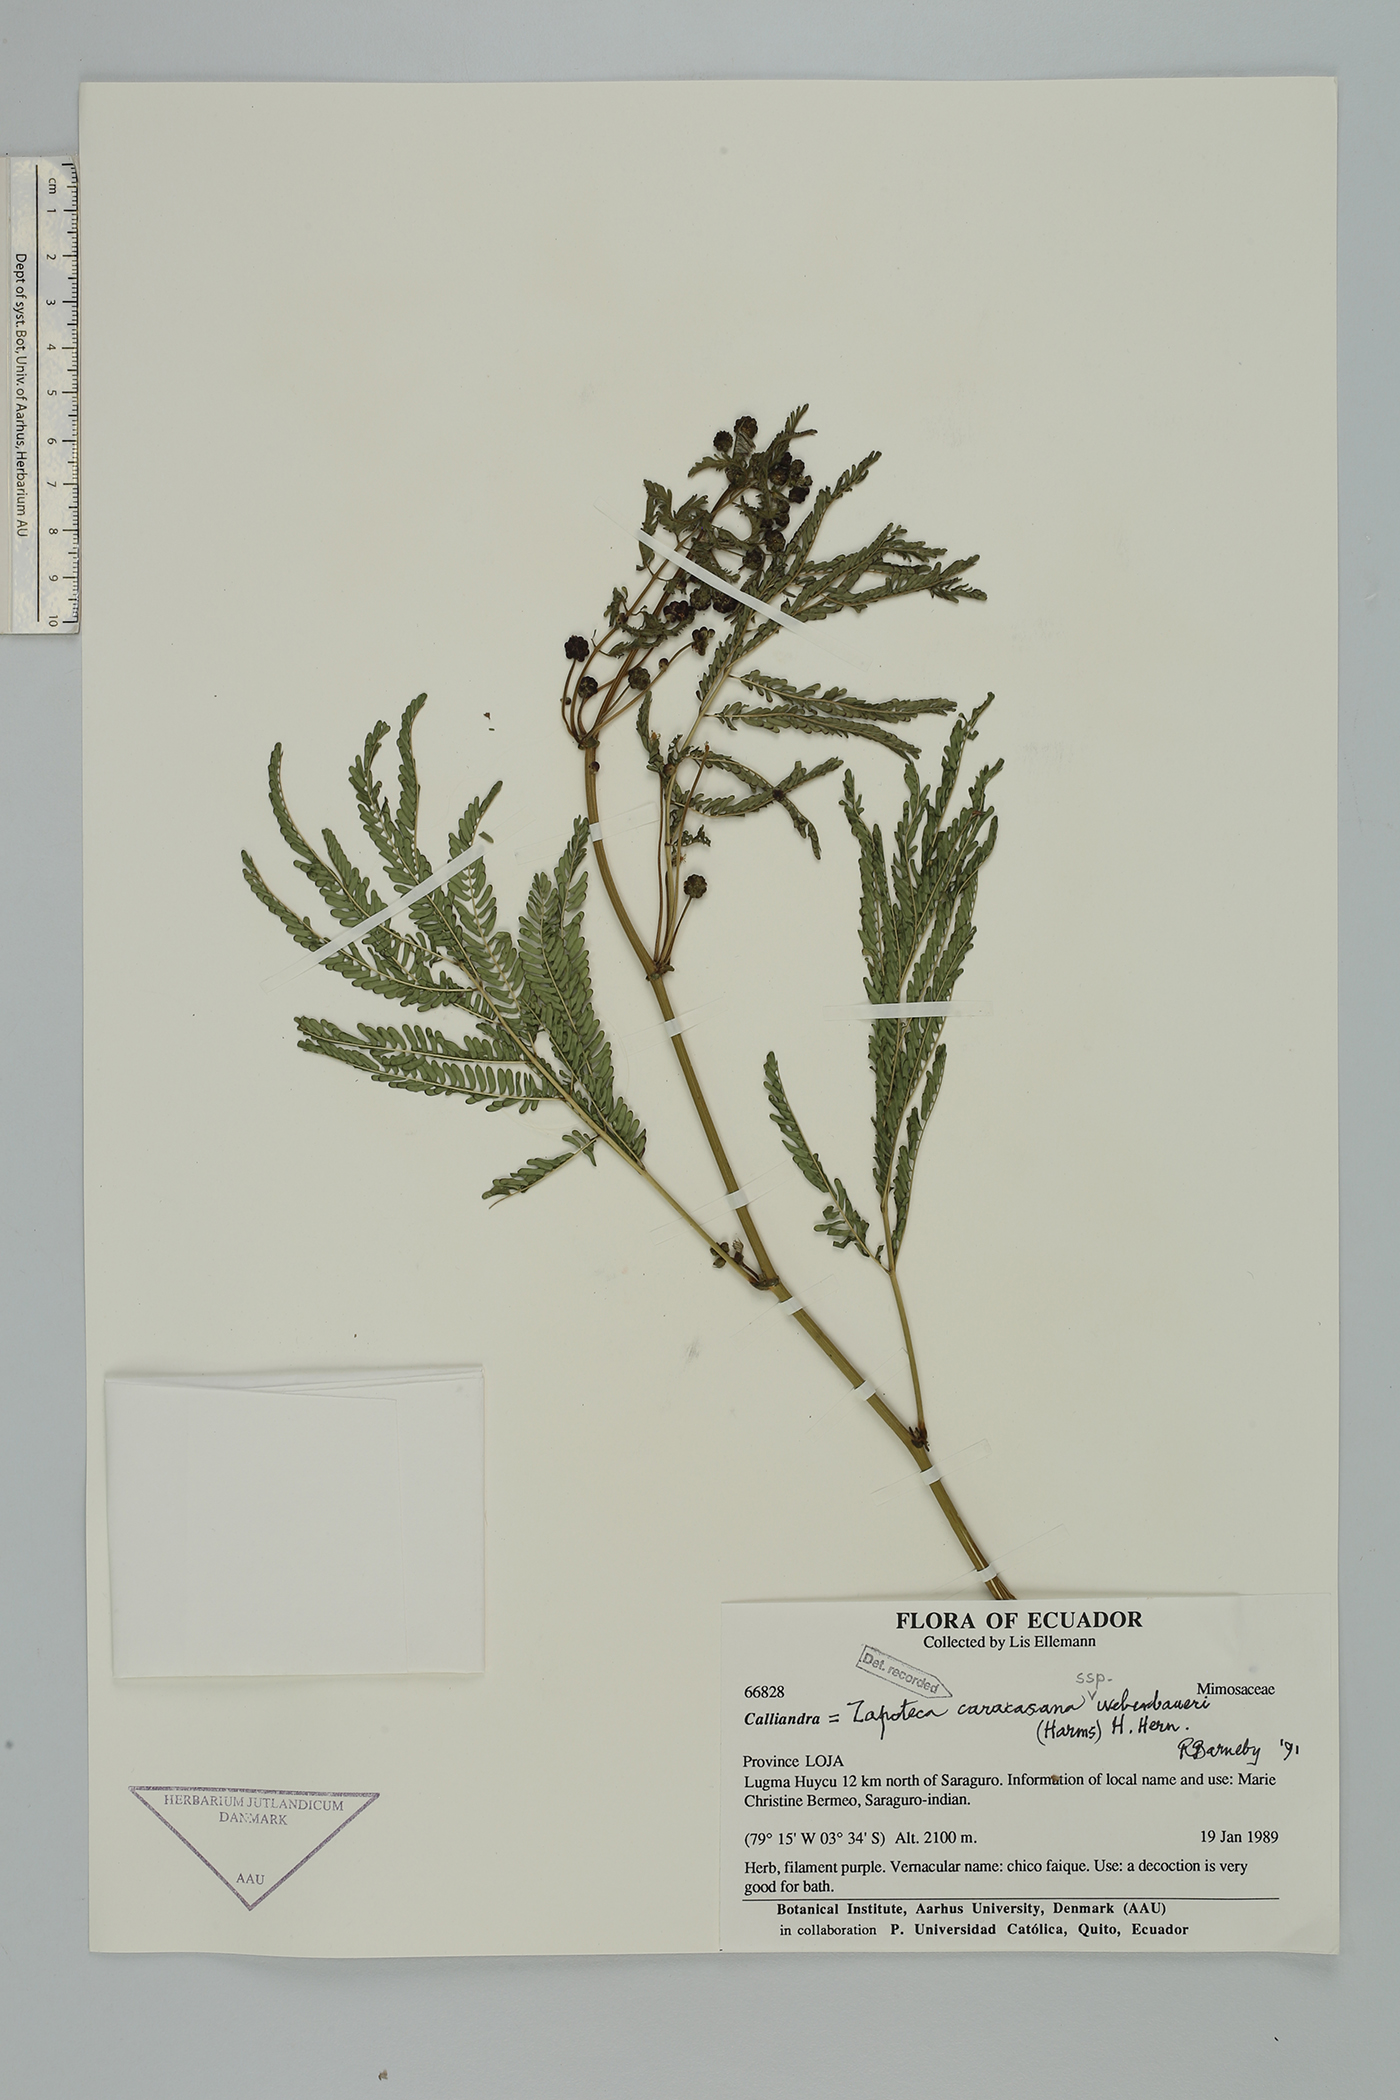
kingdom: Plantae
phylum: Tracheophyta
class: Magnoliopsida
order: Fabales
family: Fabaceae
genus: Zapoteca
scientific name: Zapoteca caracasana
